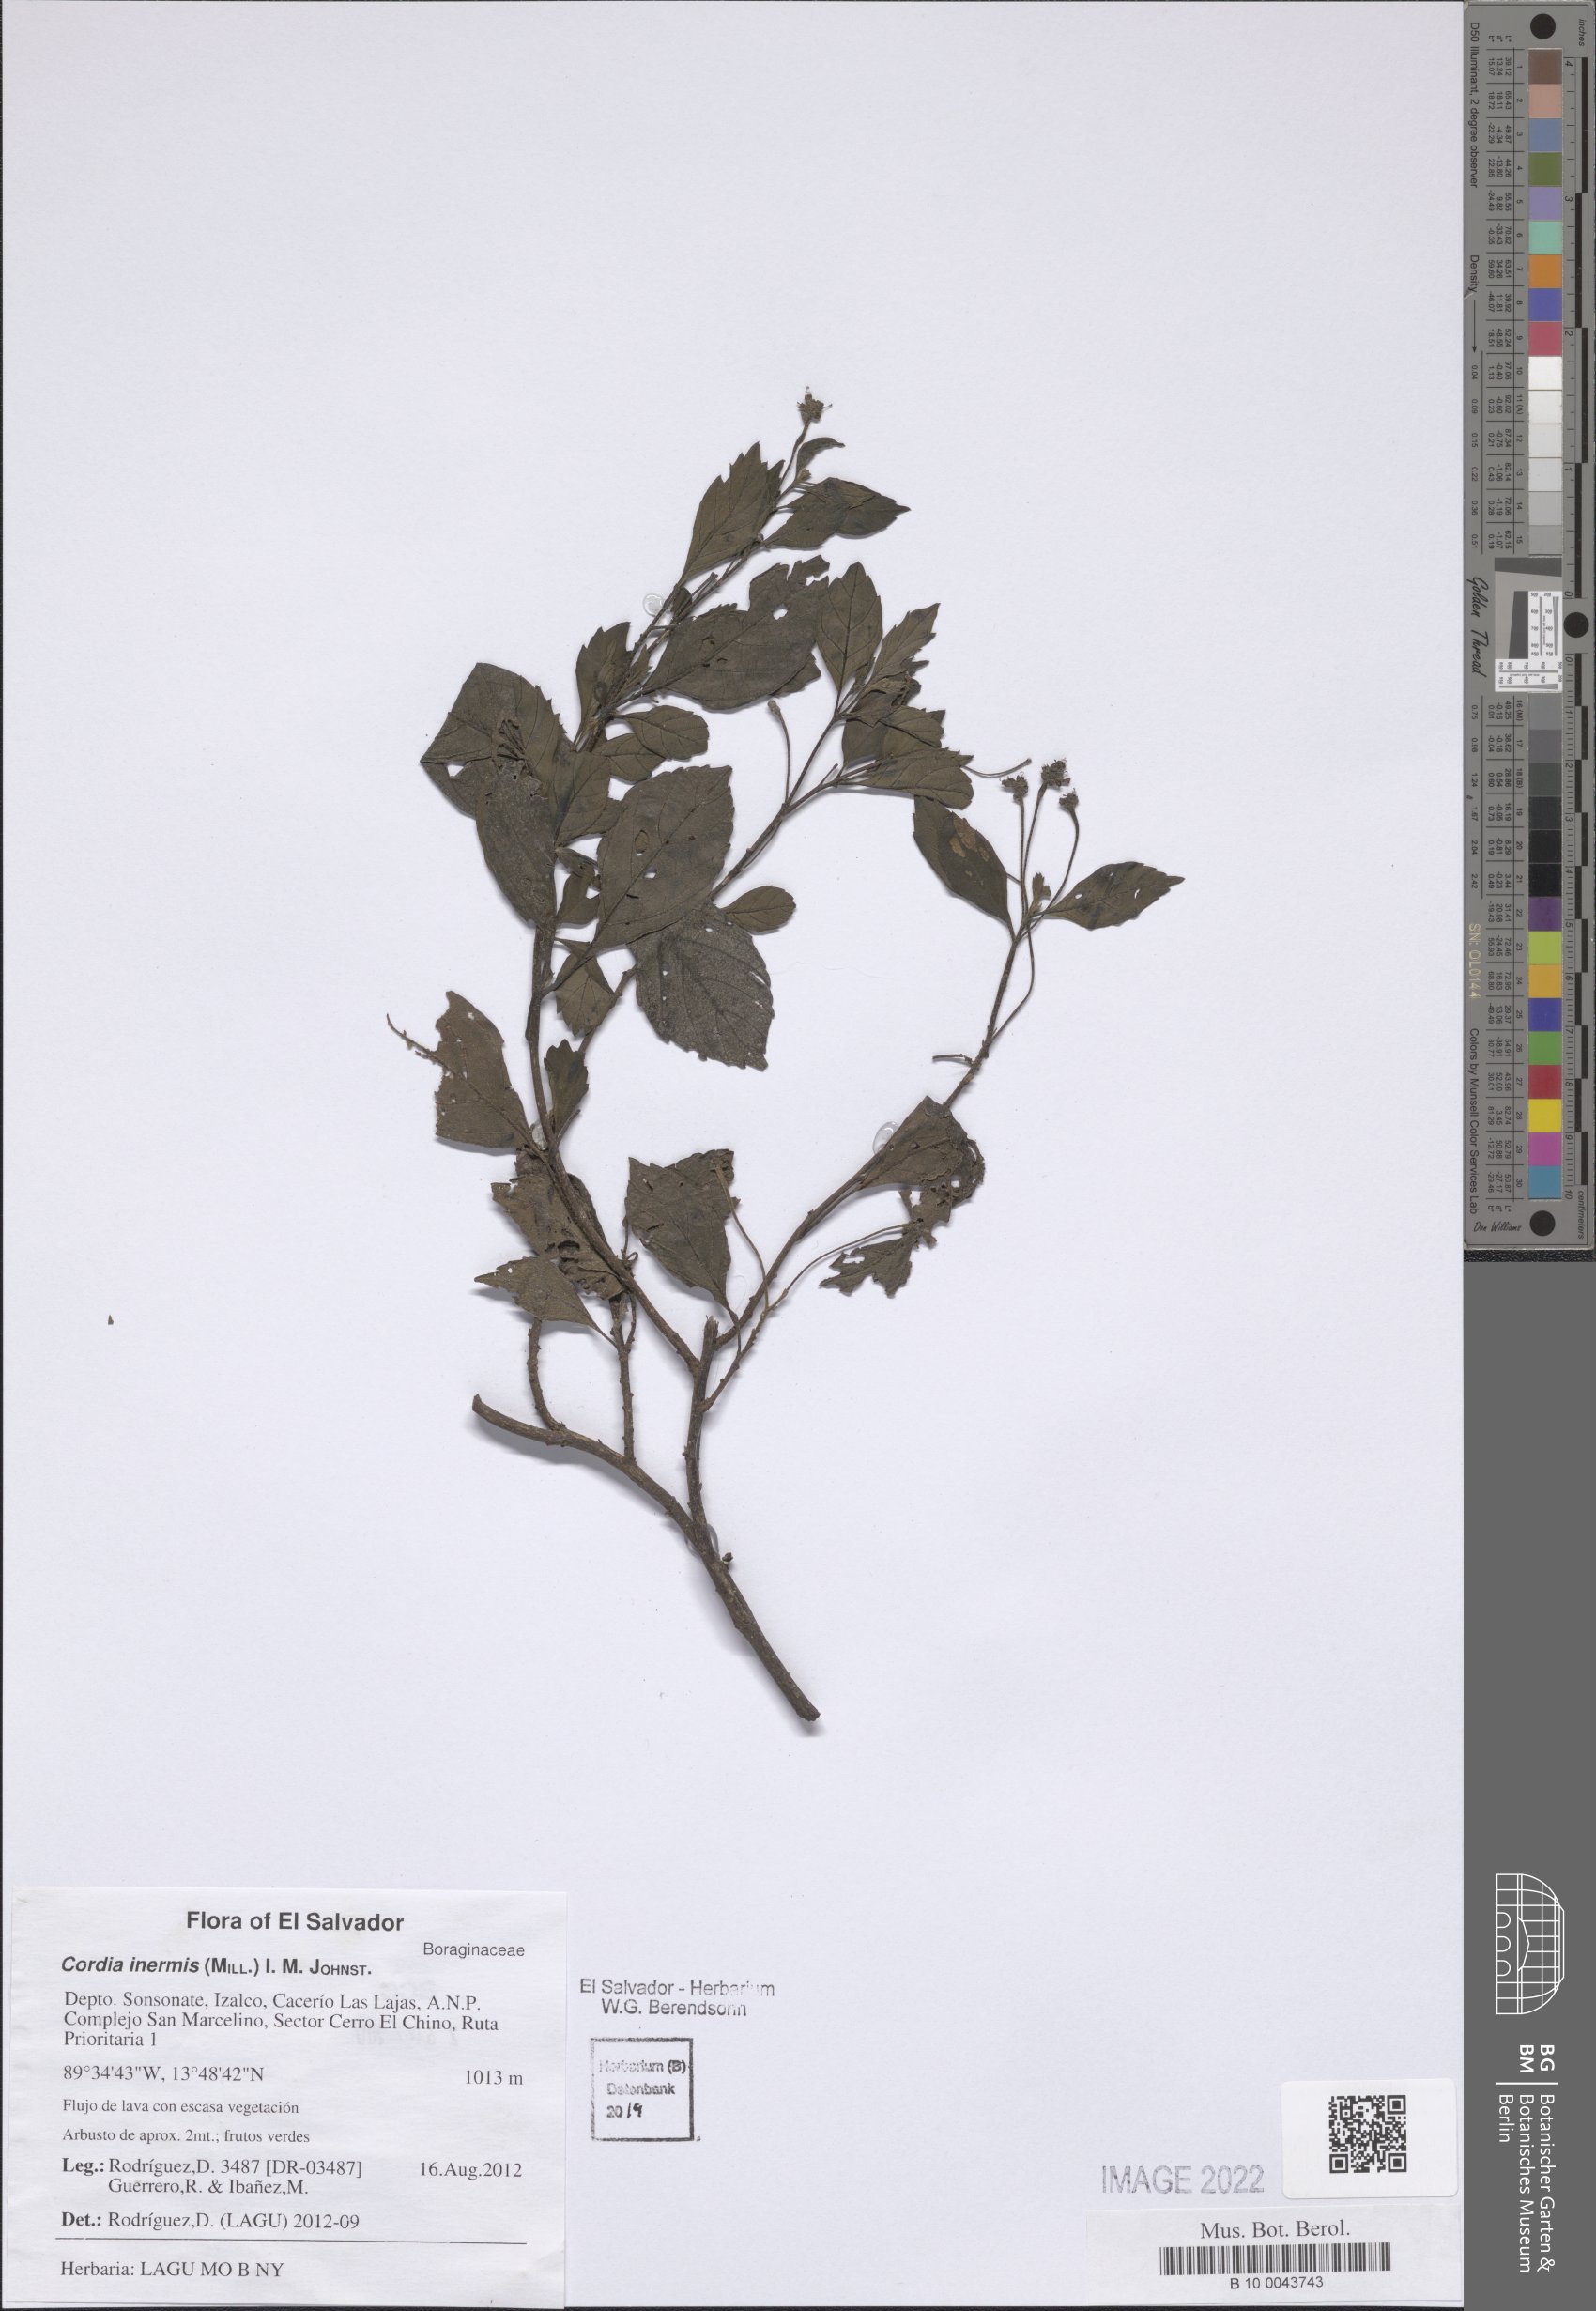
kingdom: Plantae
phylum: Tracheophyta
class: Magnoliopsida
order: Boraginales
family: Cordiaceae
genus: Varronia
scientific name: Varronia inermis
